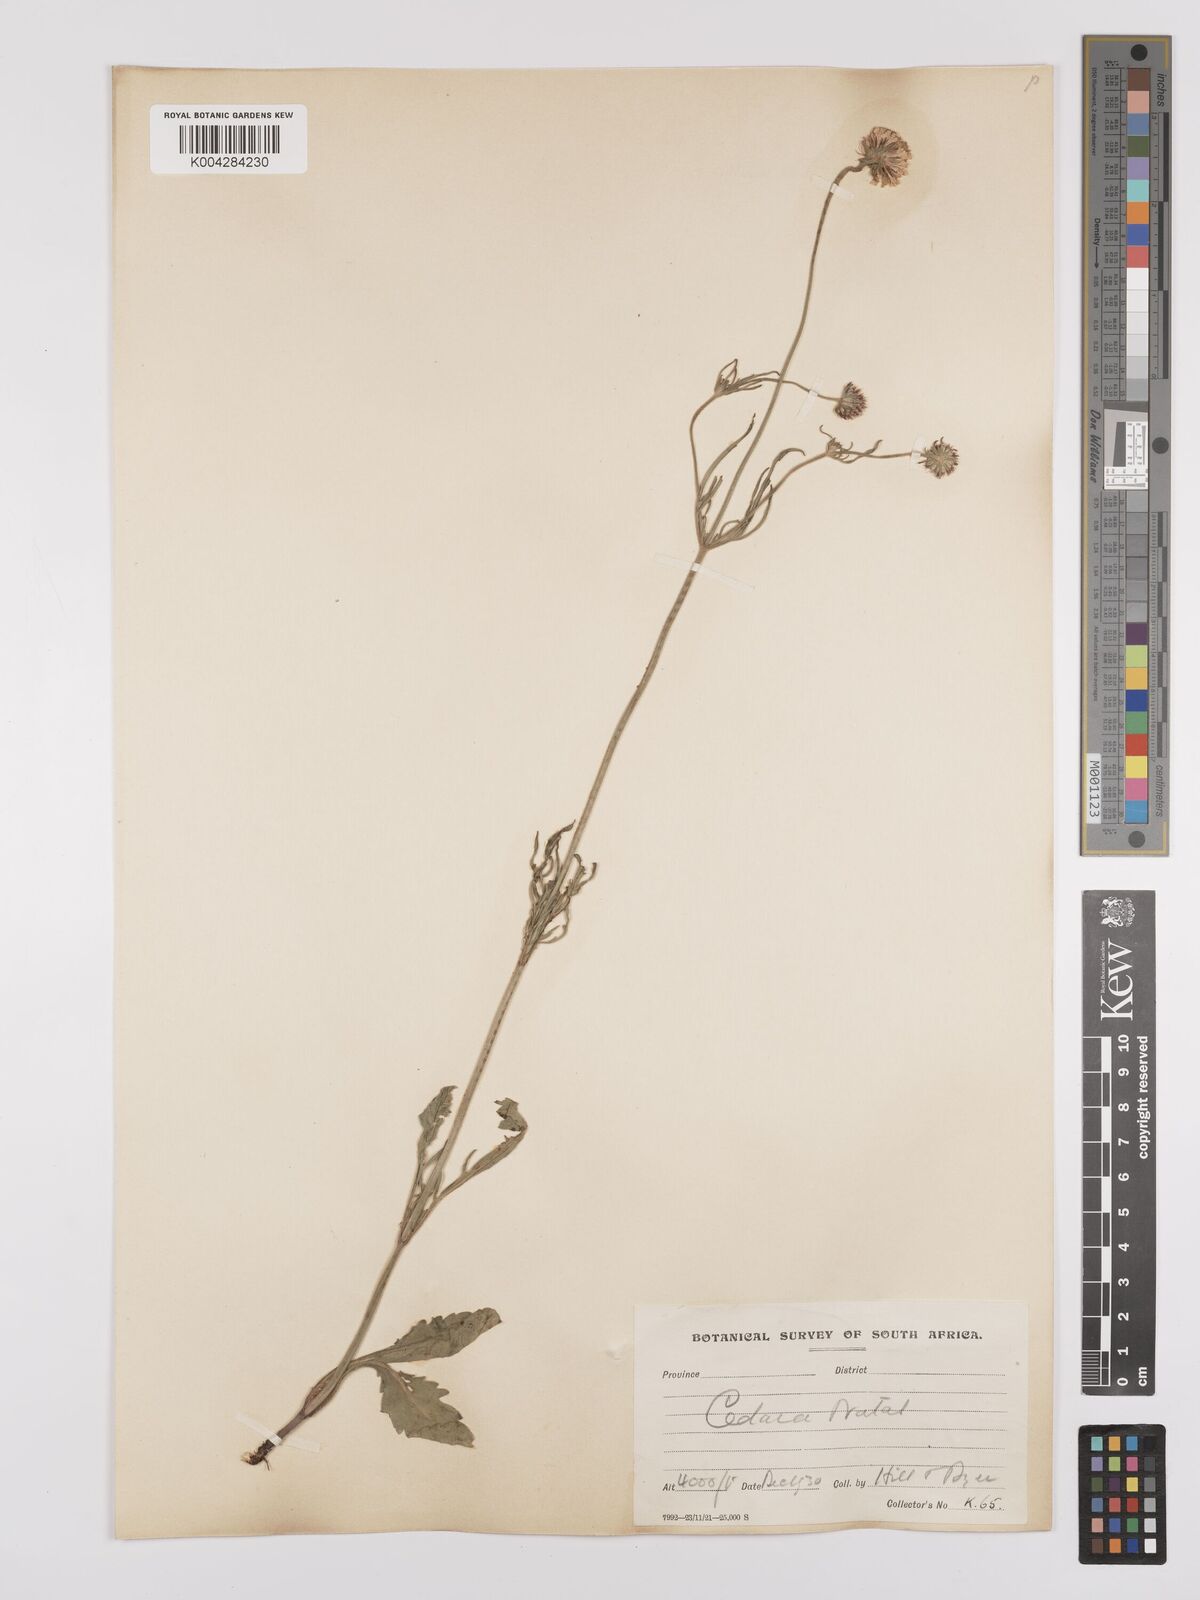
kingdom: Plantae
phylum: Tracheophyta
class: Magnoliopsida
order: Dipsacales
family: Caprifoliaceae
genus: Scabiosa
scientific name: Scabiosa columbaria
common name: Small scabious
